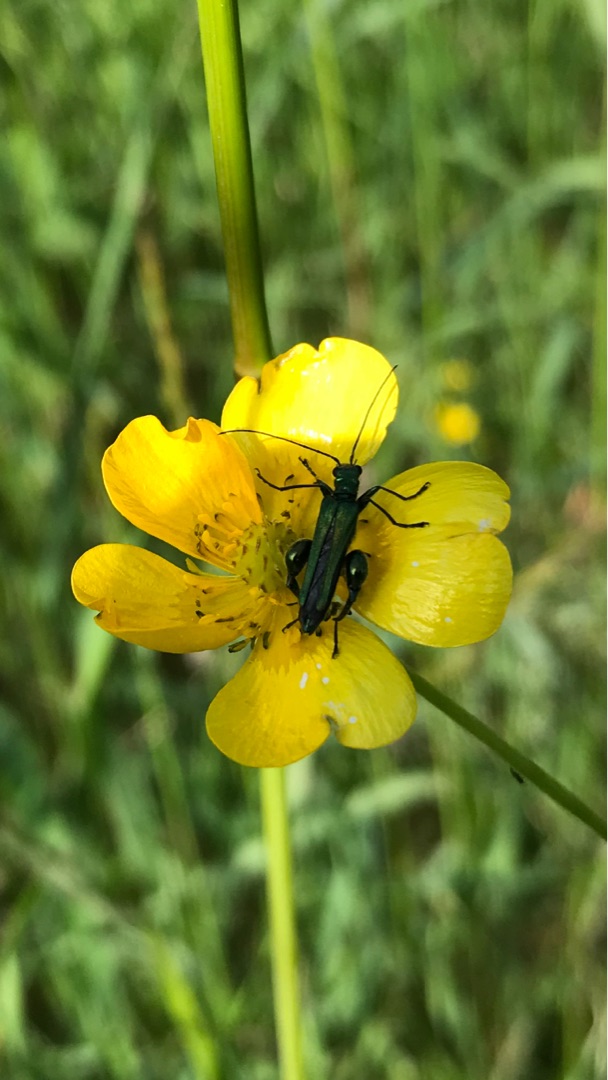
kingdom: Animalia
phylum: Arthropoda
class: Insecta
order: Coleoptera
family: Oedemeridae
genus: Oedemera
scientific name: Oedemera nobilis
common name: Tyklårssolbille
